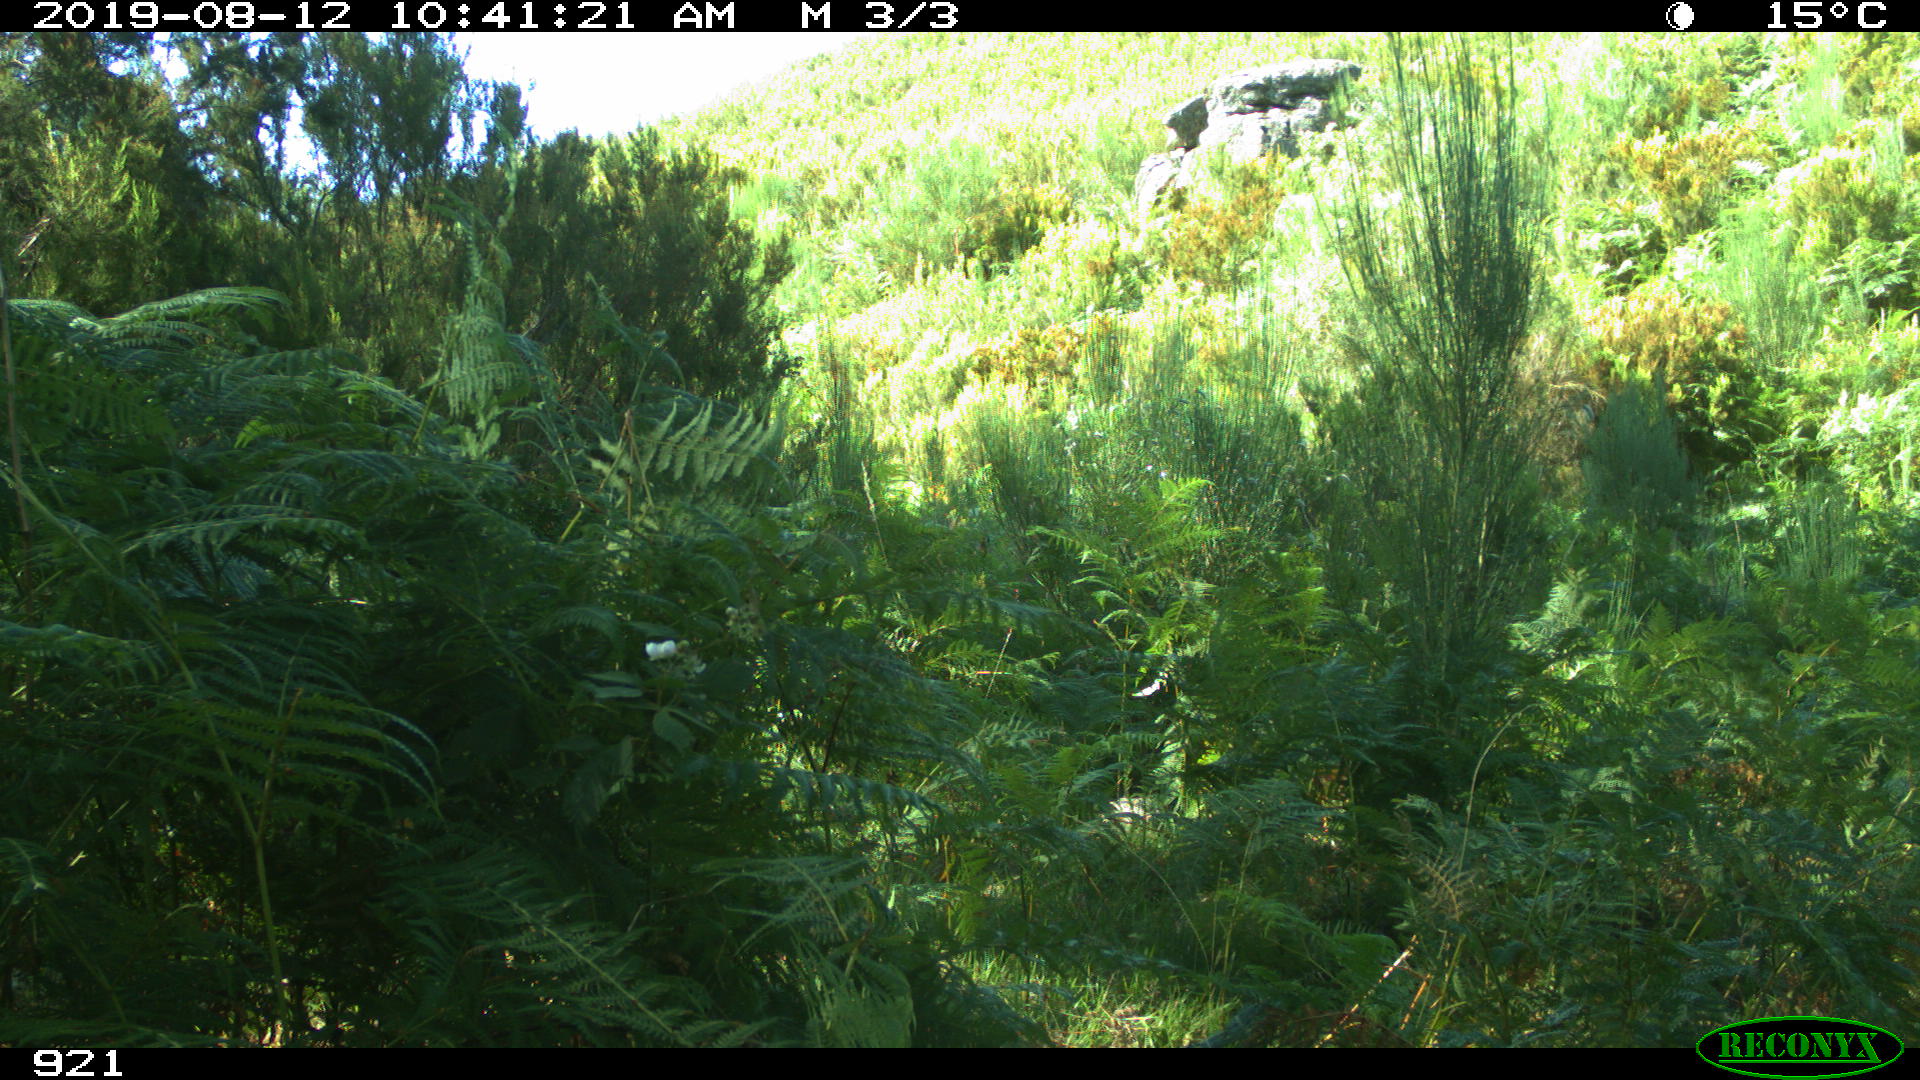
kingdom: Animalia
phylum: Chordata
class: Mammalia
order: Artiodactyla
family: Suidae
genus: Sus
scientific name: Sus scrofa
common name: Wild boar
